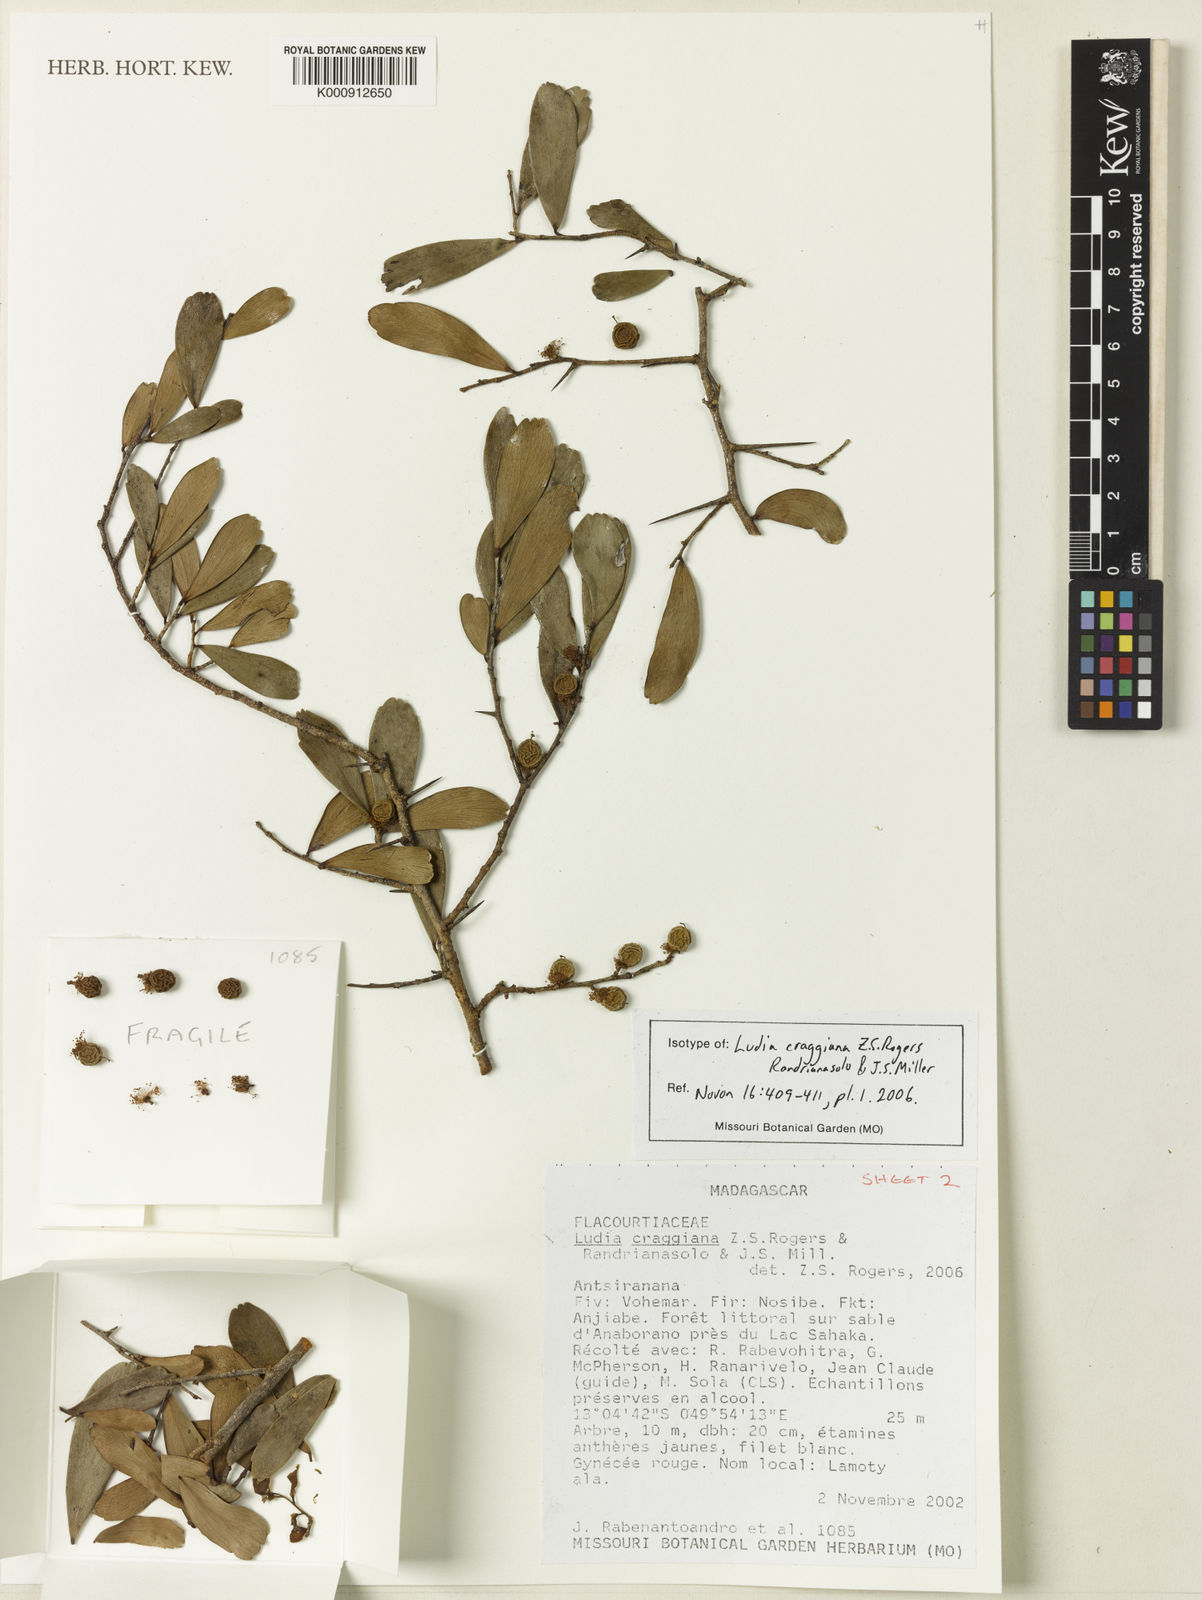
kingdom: Plantae
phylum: Tracheophyta
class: Magnoliopsida
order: Malpighiales
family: Salicaceae
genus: Ludia
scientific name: Ludia craggiana
